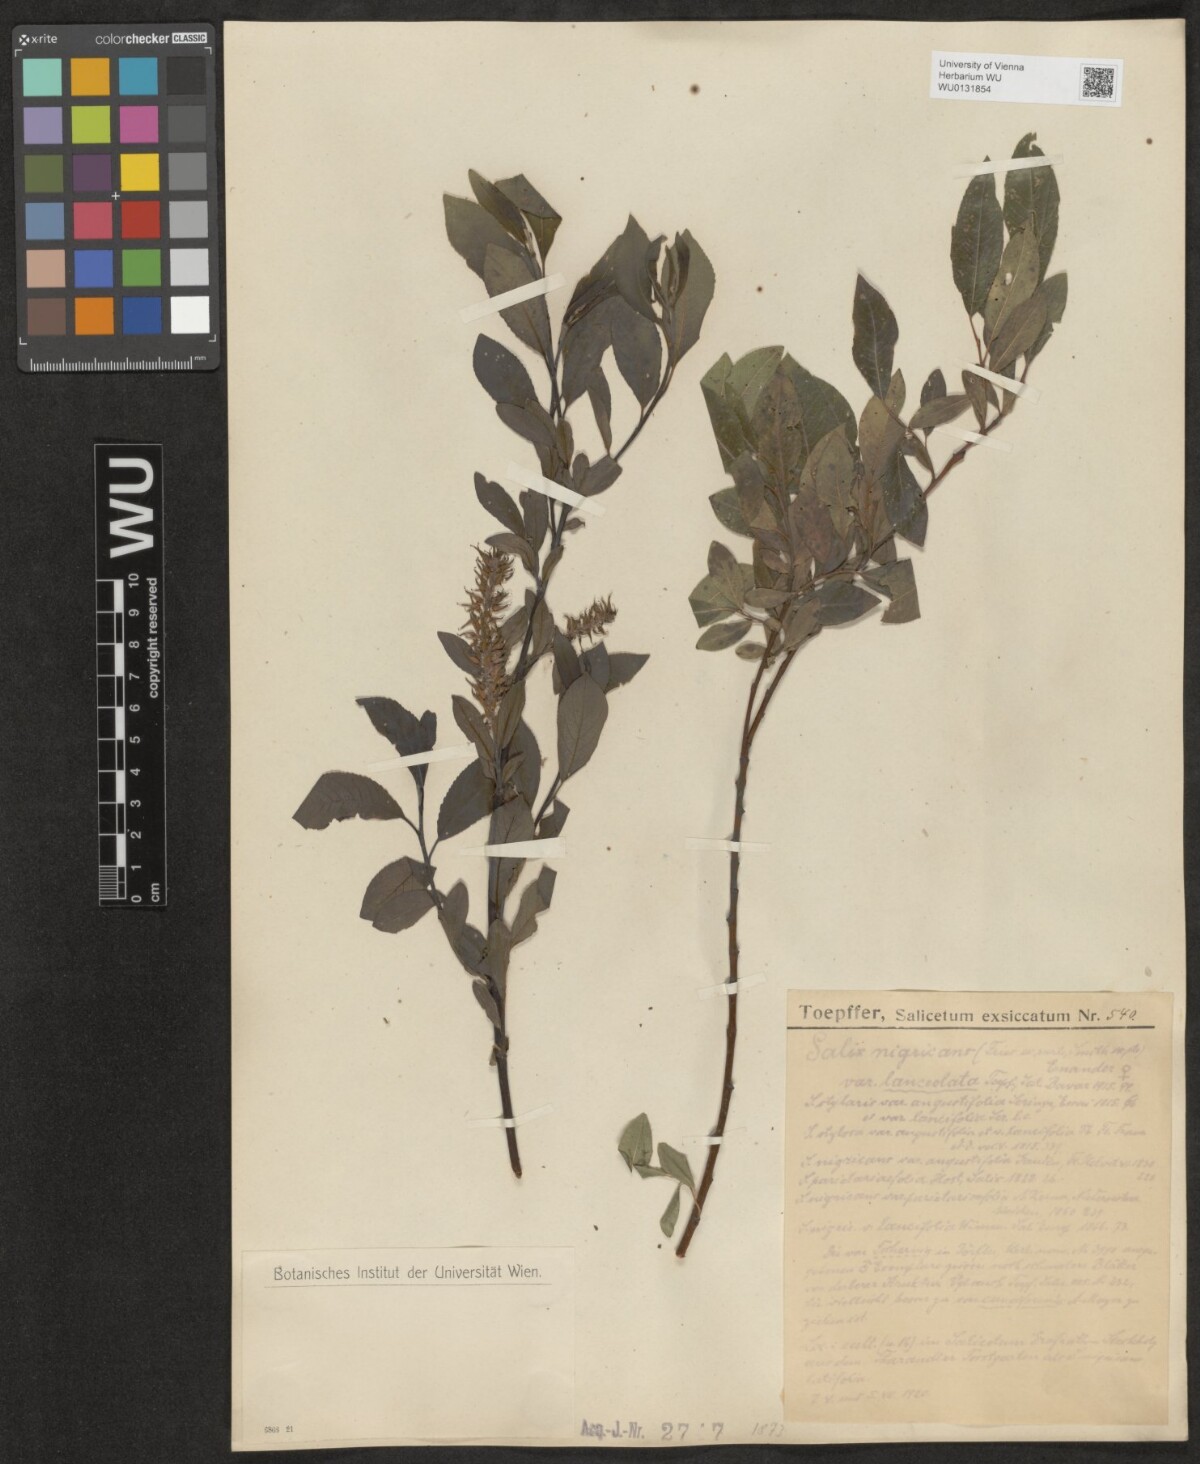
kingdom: Plantae
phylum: Tracheophyta
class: Magnoliopsida
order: Malpighiales
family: Salicaceae
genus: Salix
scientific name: Salix myrsinifolia
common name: Dark-leaved willow
